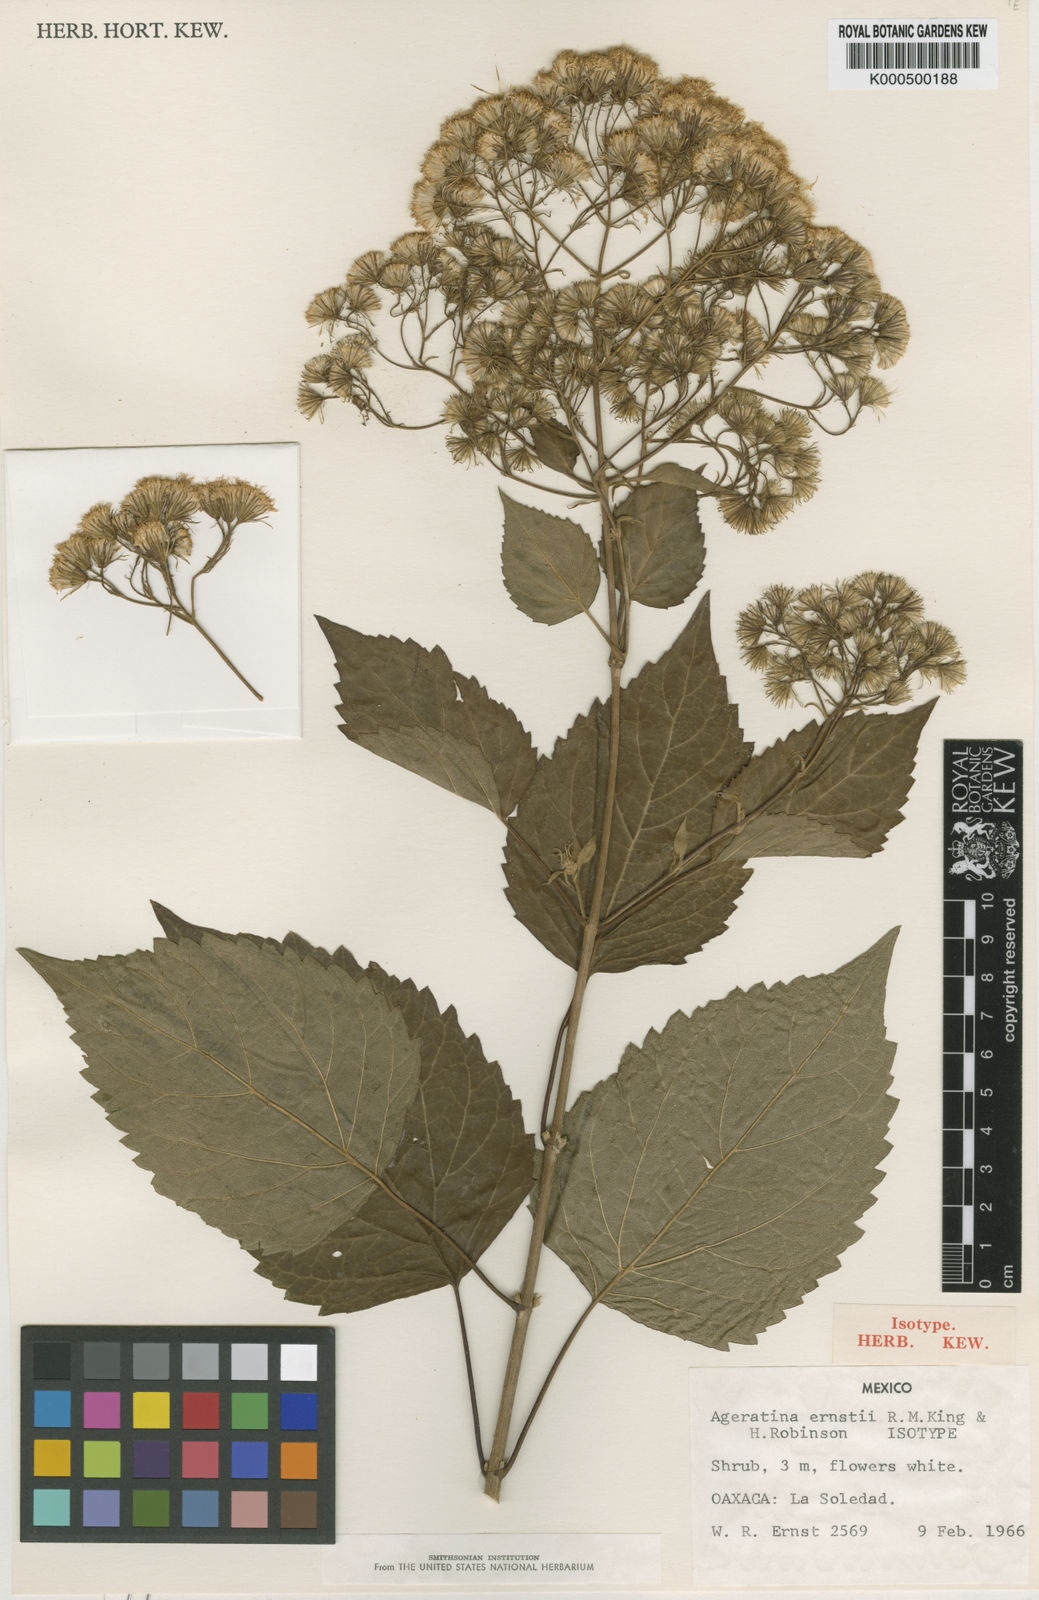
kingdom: Plantae
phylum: Tracheophyta
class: Magnoliopsida
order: Asterales
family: Asteraceae
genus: Ageratina
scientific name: Ageratina aegirophylla
